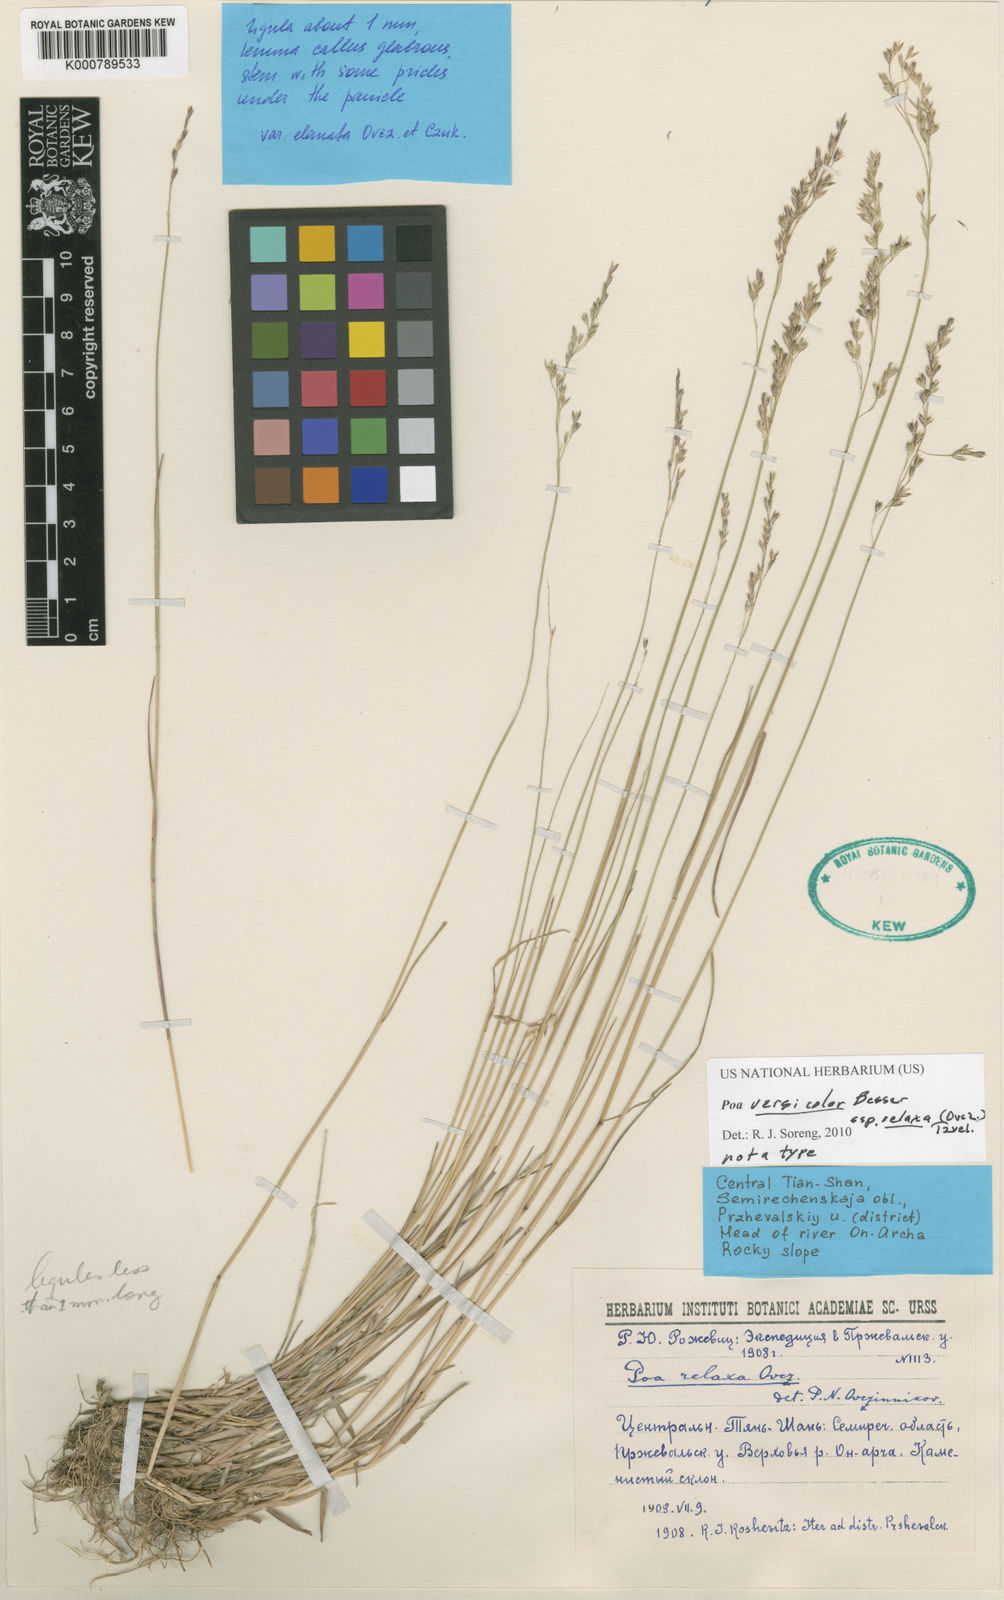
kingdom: Plantae
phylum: Tracheophyta
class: Liliopsida
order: Poales
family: Poaceae
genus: Poa
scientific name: Poa versicolor
